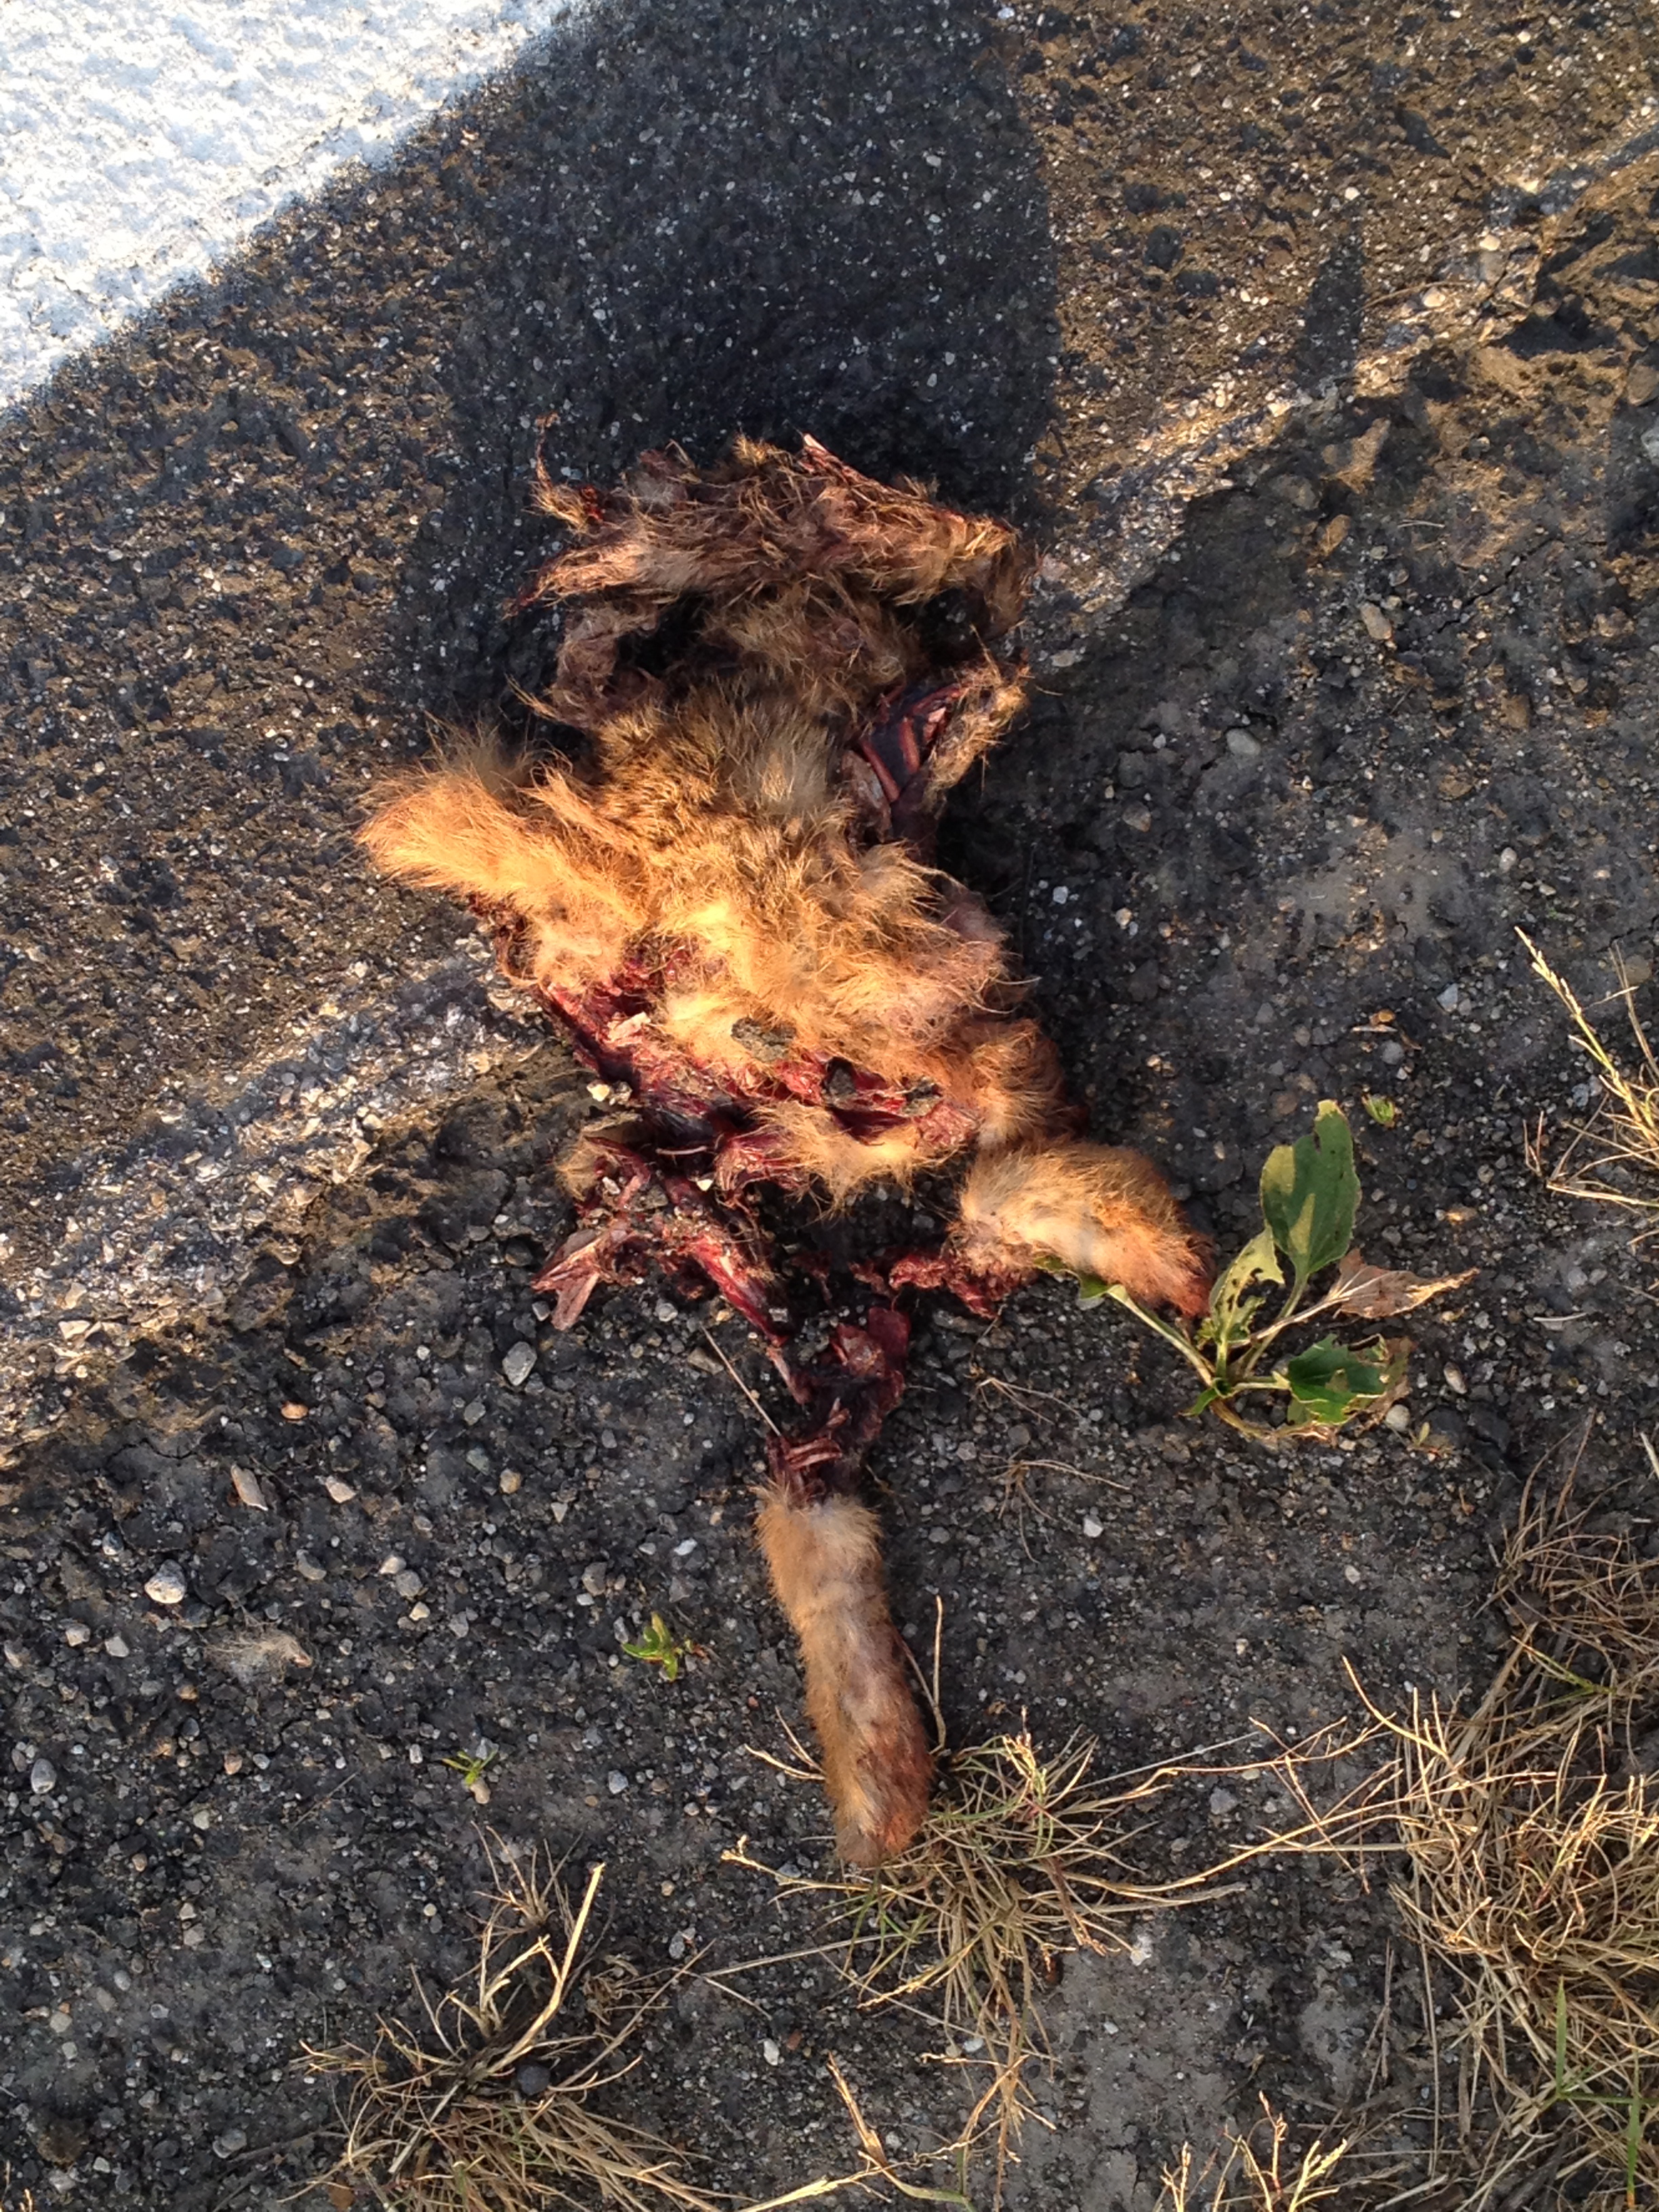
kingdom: Animalia
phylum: Chordata
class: Mammalia
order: Lagomorpha
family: Leporidae
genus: Lepus
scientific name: Lepus europaeus
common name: European hare
